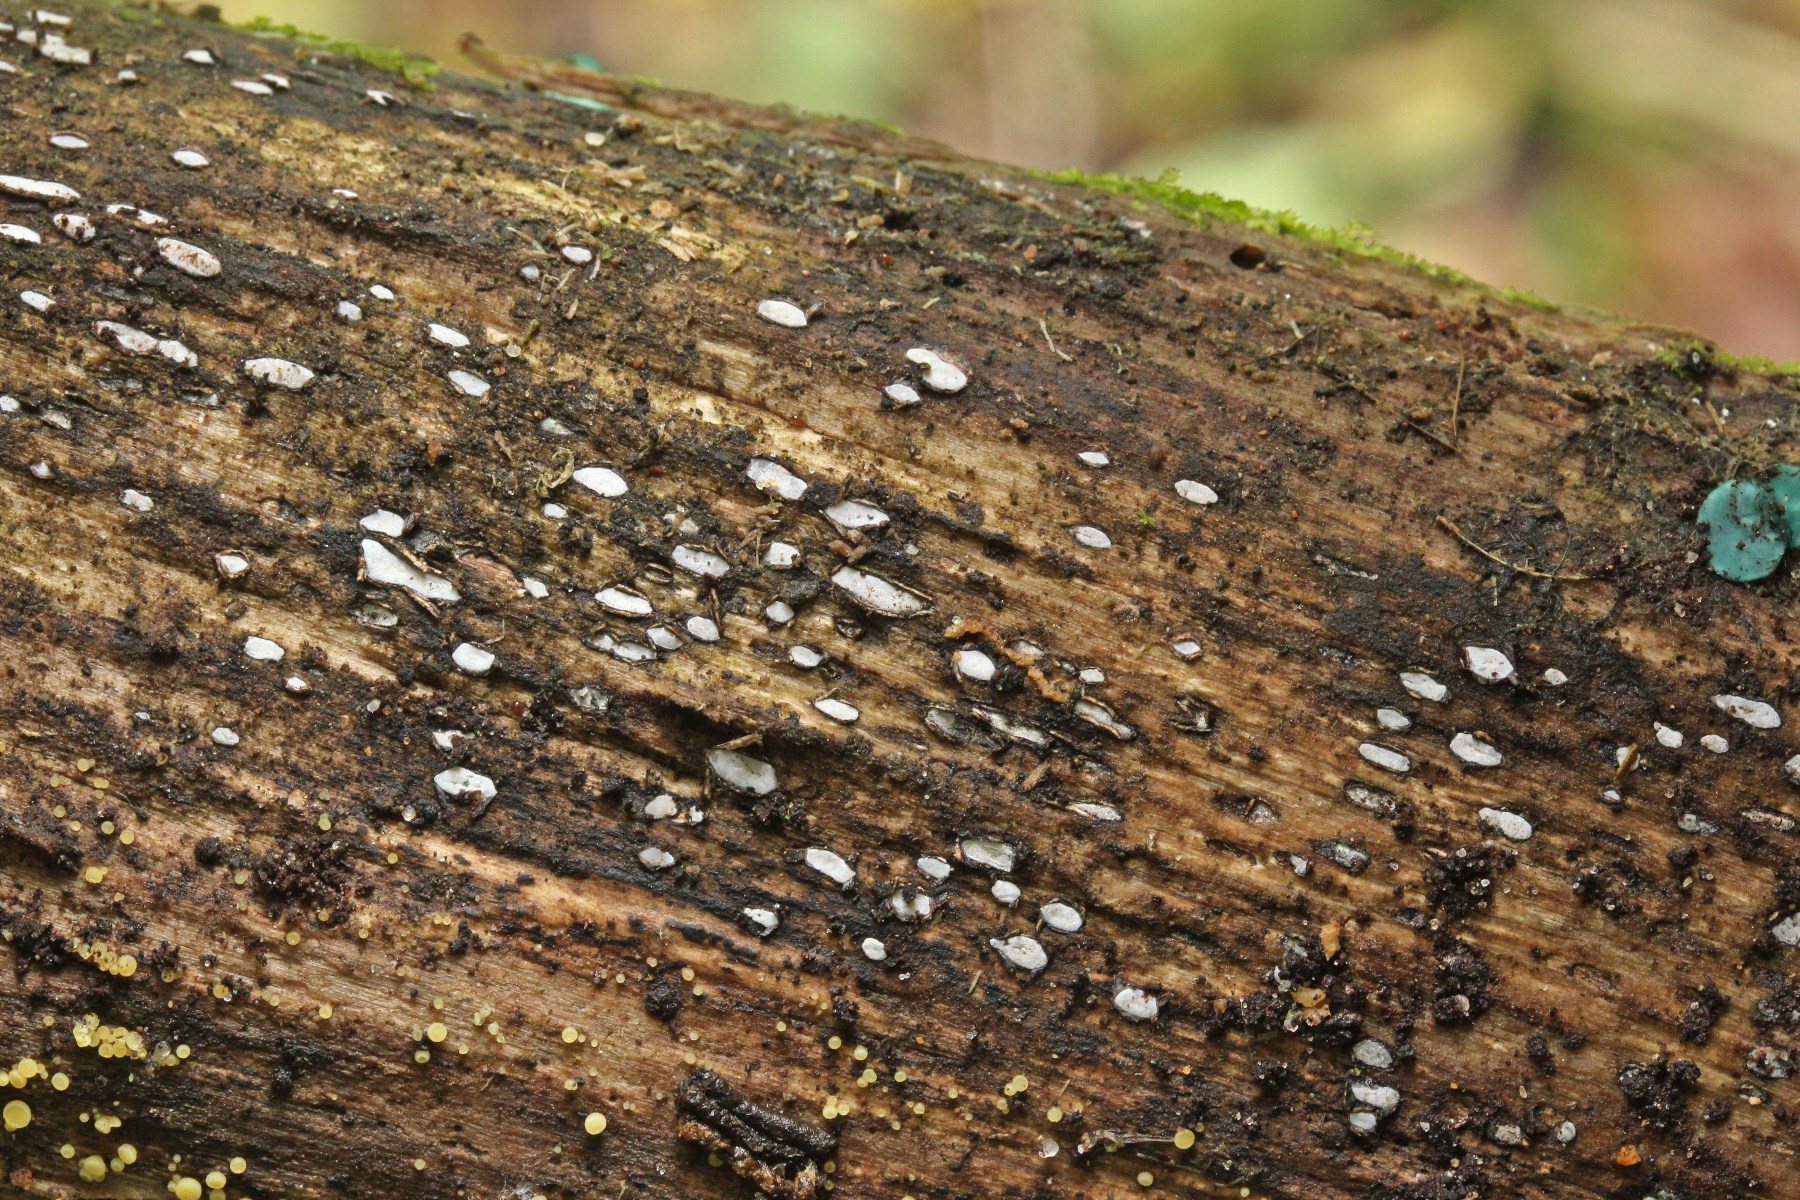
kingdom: Fungi
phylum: Ascomycota
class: Leotiomycetes
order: Chaetomellales
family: Marthamycetaceae
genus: Propolis
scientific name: Propolis farinosa
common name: almindelig vedsprængerskive
